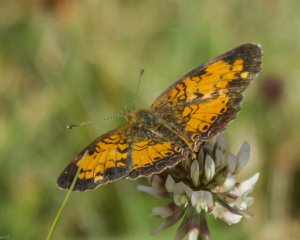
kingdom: Animalia
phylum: Arthropoda
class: Insecta
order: Lepidoptera
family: Nymphalidae
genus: Phyciodes
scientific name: Phyciodes tharos
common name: Northern Crescent
